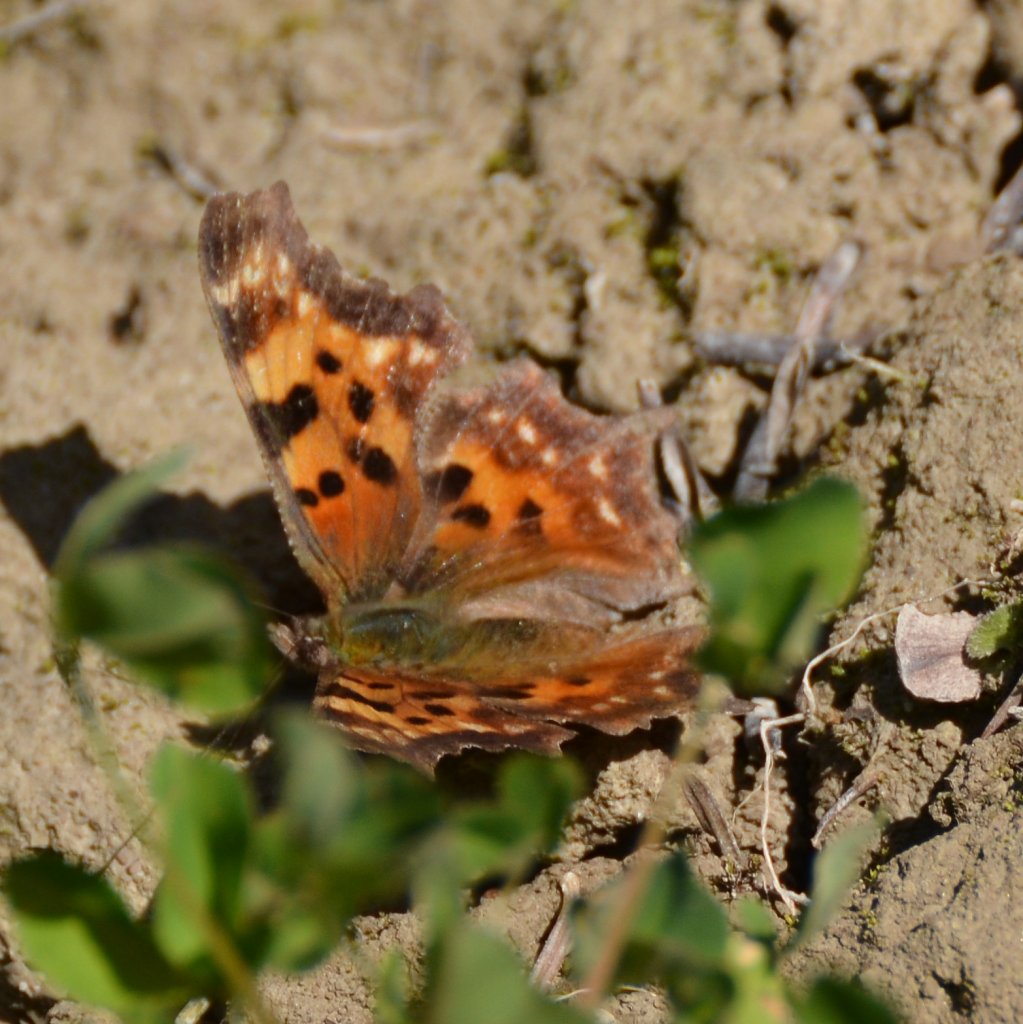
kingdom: Animalia
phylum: Arthropoda
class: Insecta
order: Lepidoptera
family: Nymphalidae
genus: Polygonia
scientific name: Polygonia faunus
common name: Green Comma
